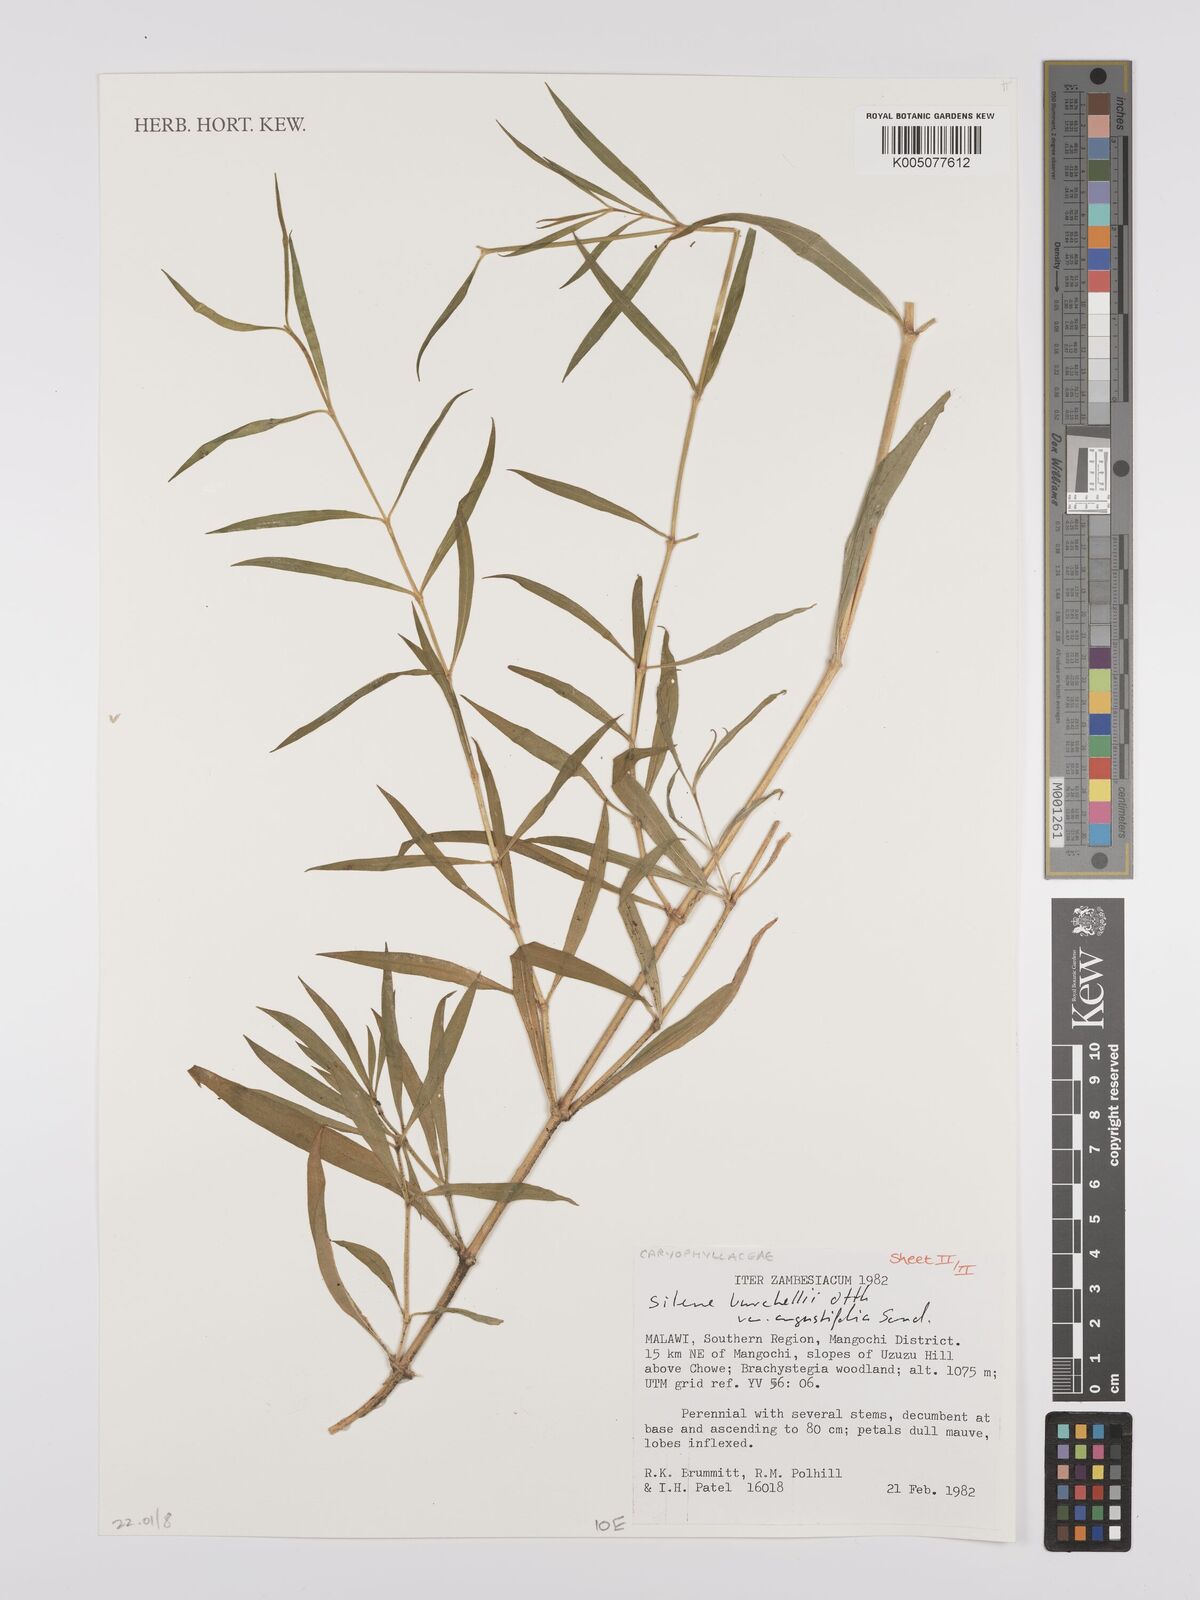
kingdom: Plantae
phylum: Tracheophyta
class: Magnoliopsida
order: Caryophyllales
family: Caryophyllaceae
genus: Silene
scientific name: Silene burchellii
